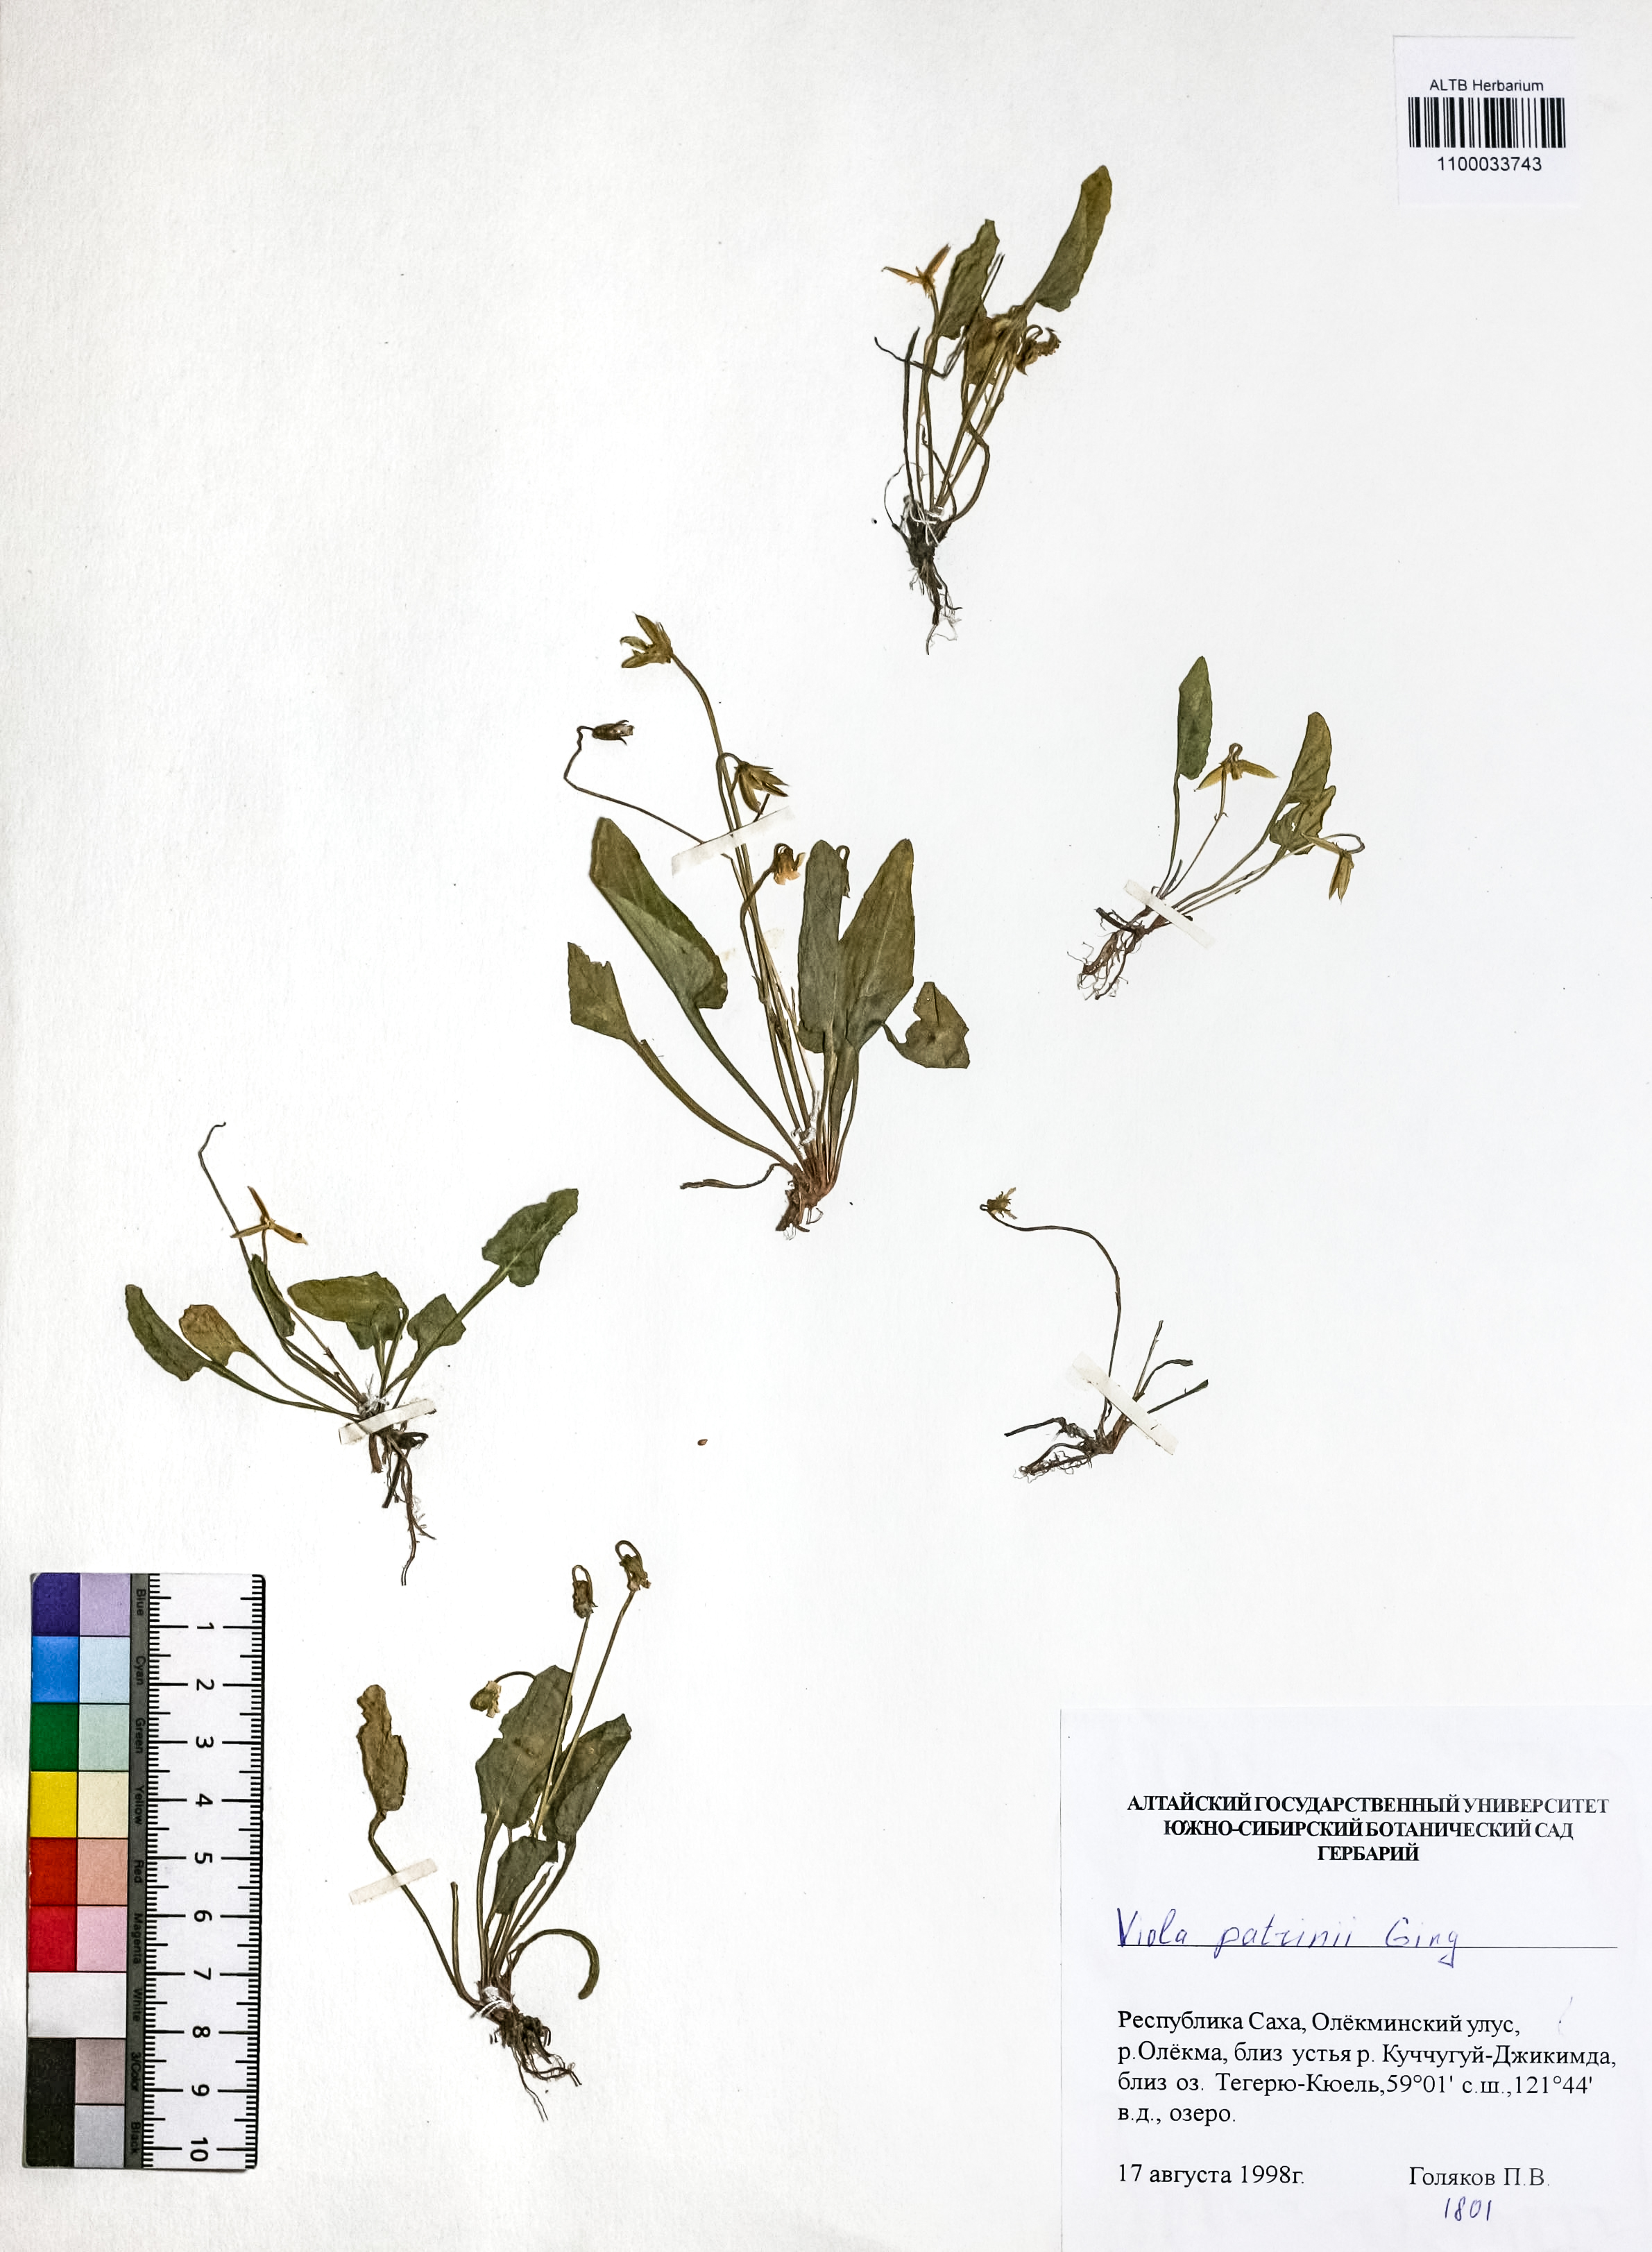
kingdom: Plantae
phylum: Tracheophyta
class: Magnoliopsida
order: Malpighiales
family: Violaceae
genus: Viola
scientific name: Viola patrinii
